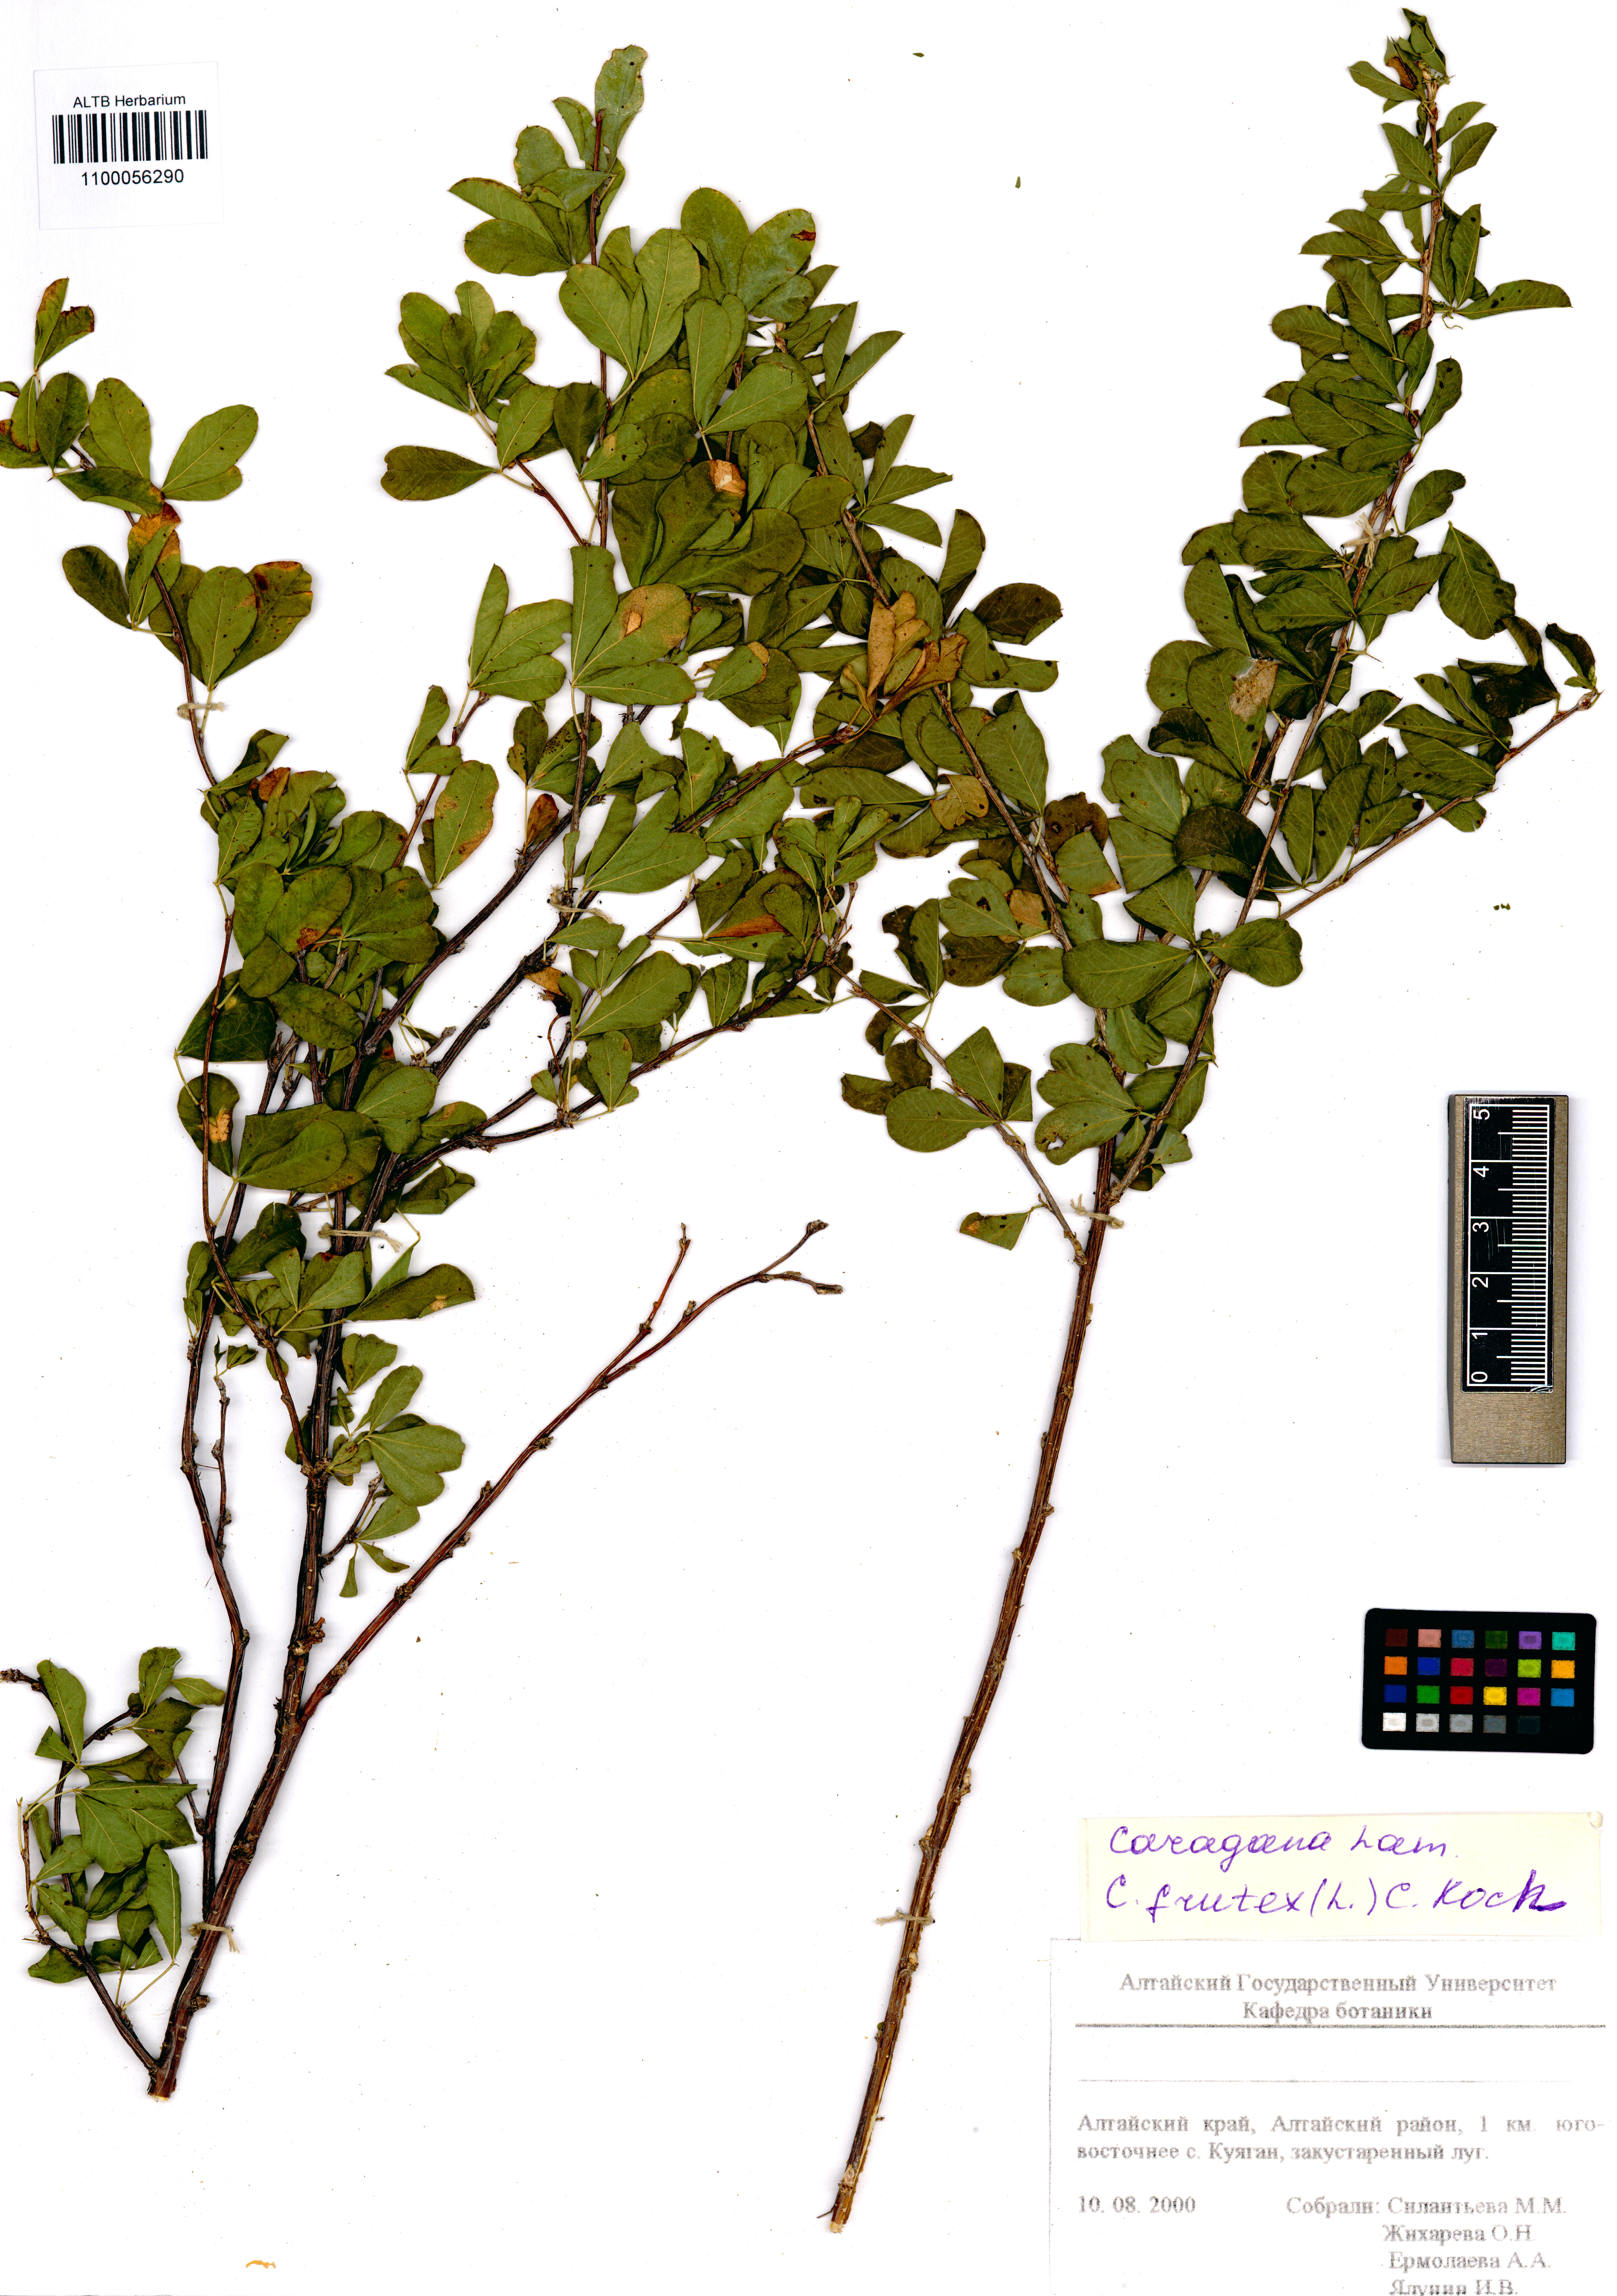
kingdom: Plantae
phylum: Tracheophyta
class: Magnoliopsida
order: Fabales
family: Fabaceae
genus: Caragana
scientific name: Caragana frutex
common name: Russian peashrub
